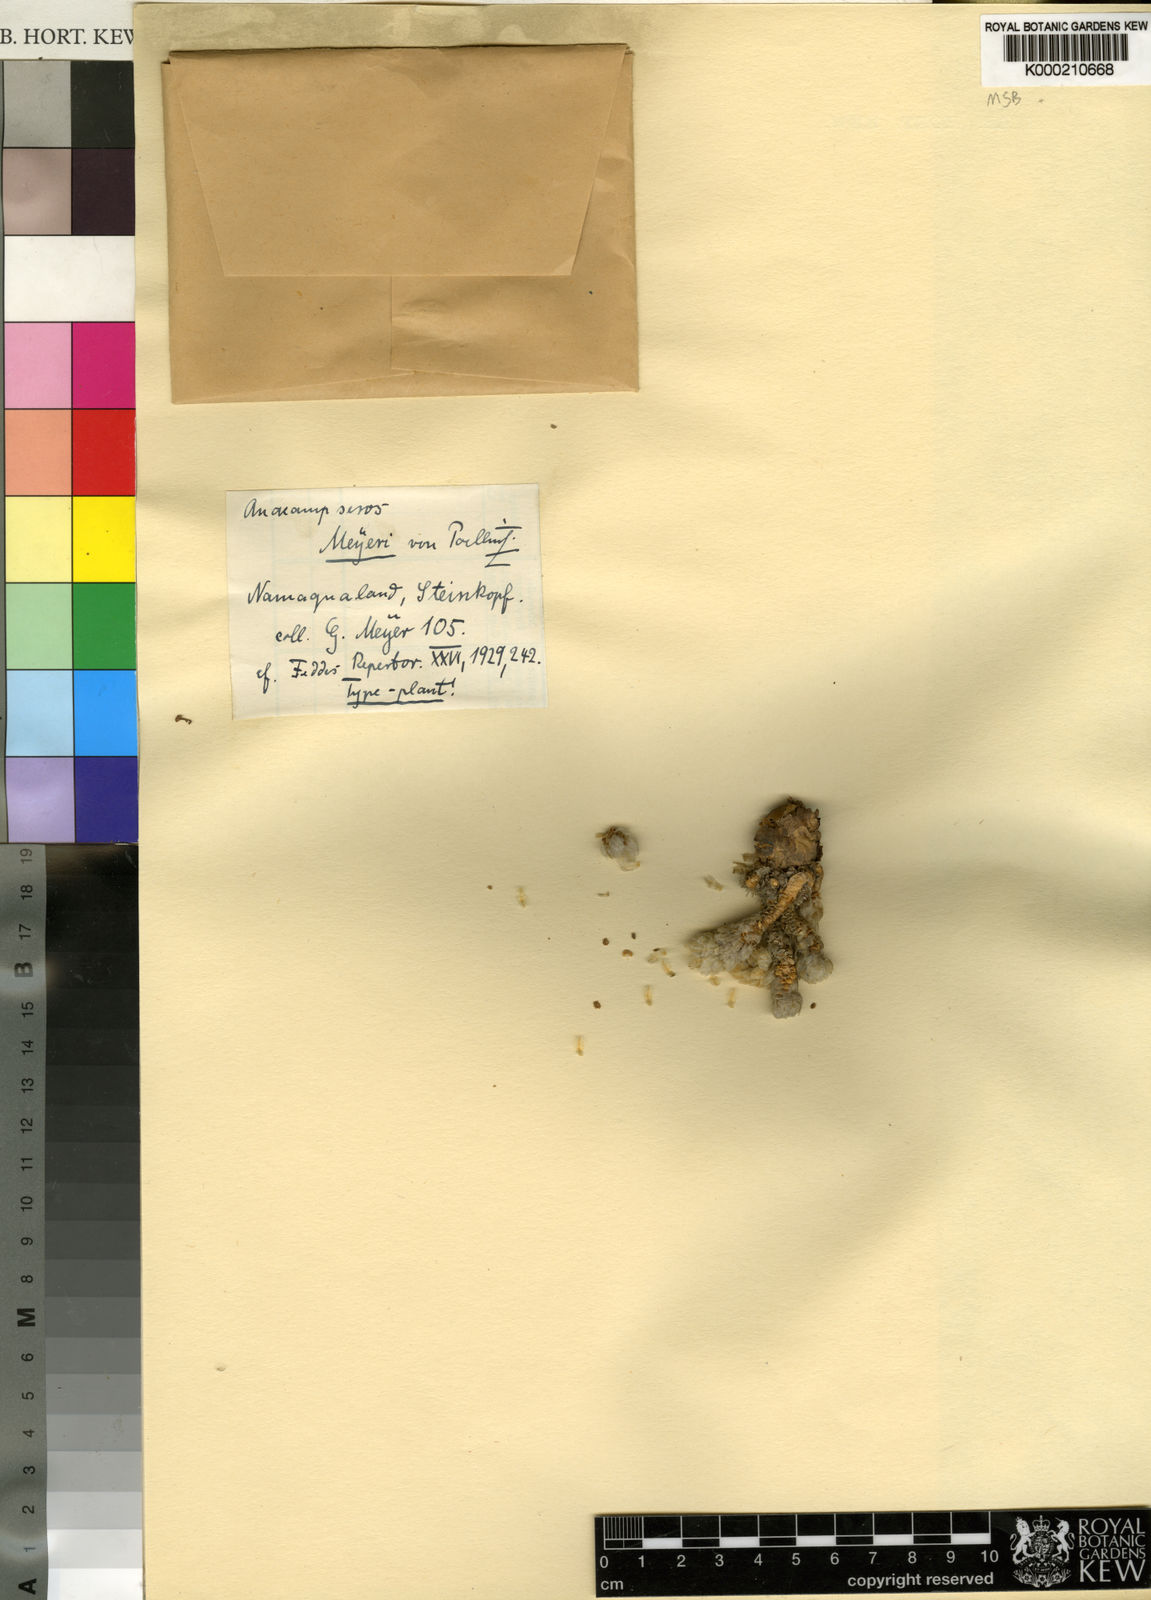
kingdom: Plantae
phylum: Tracheophyta
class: Magnoliopsida
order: Caryophyllales
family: Anacampserotaceae
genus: Anacampseros
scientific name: Anacampseros
